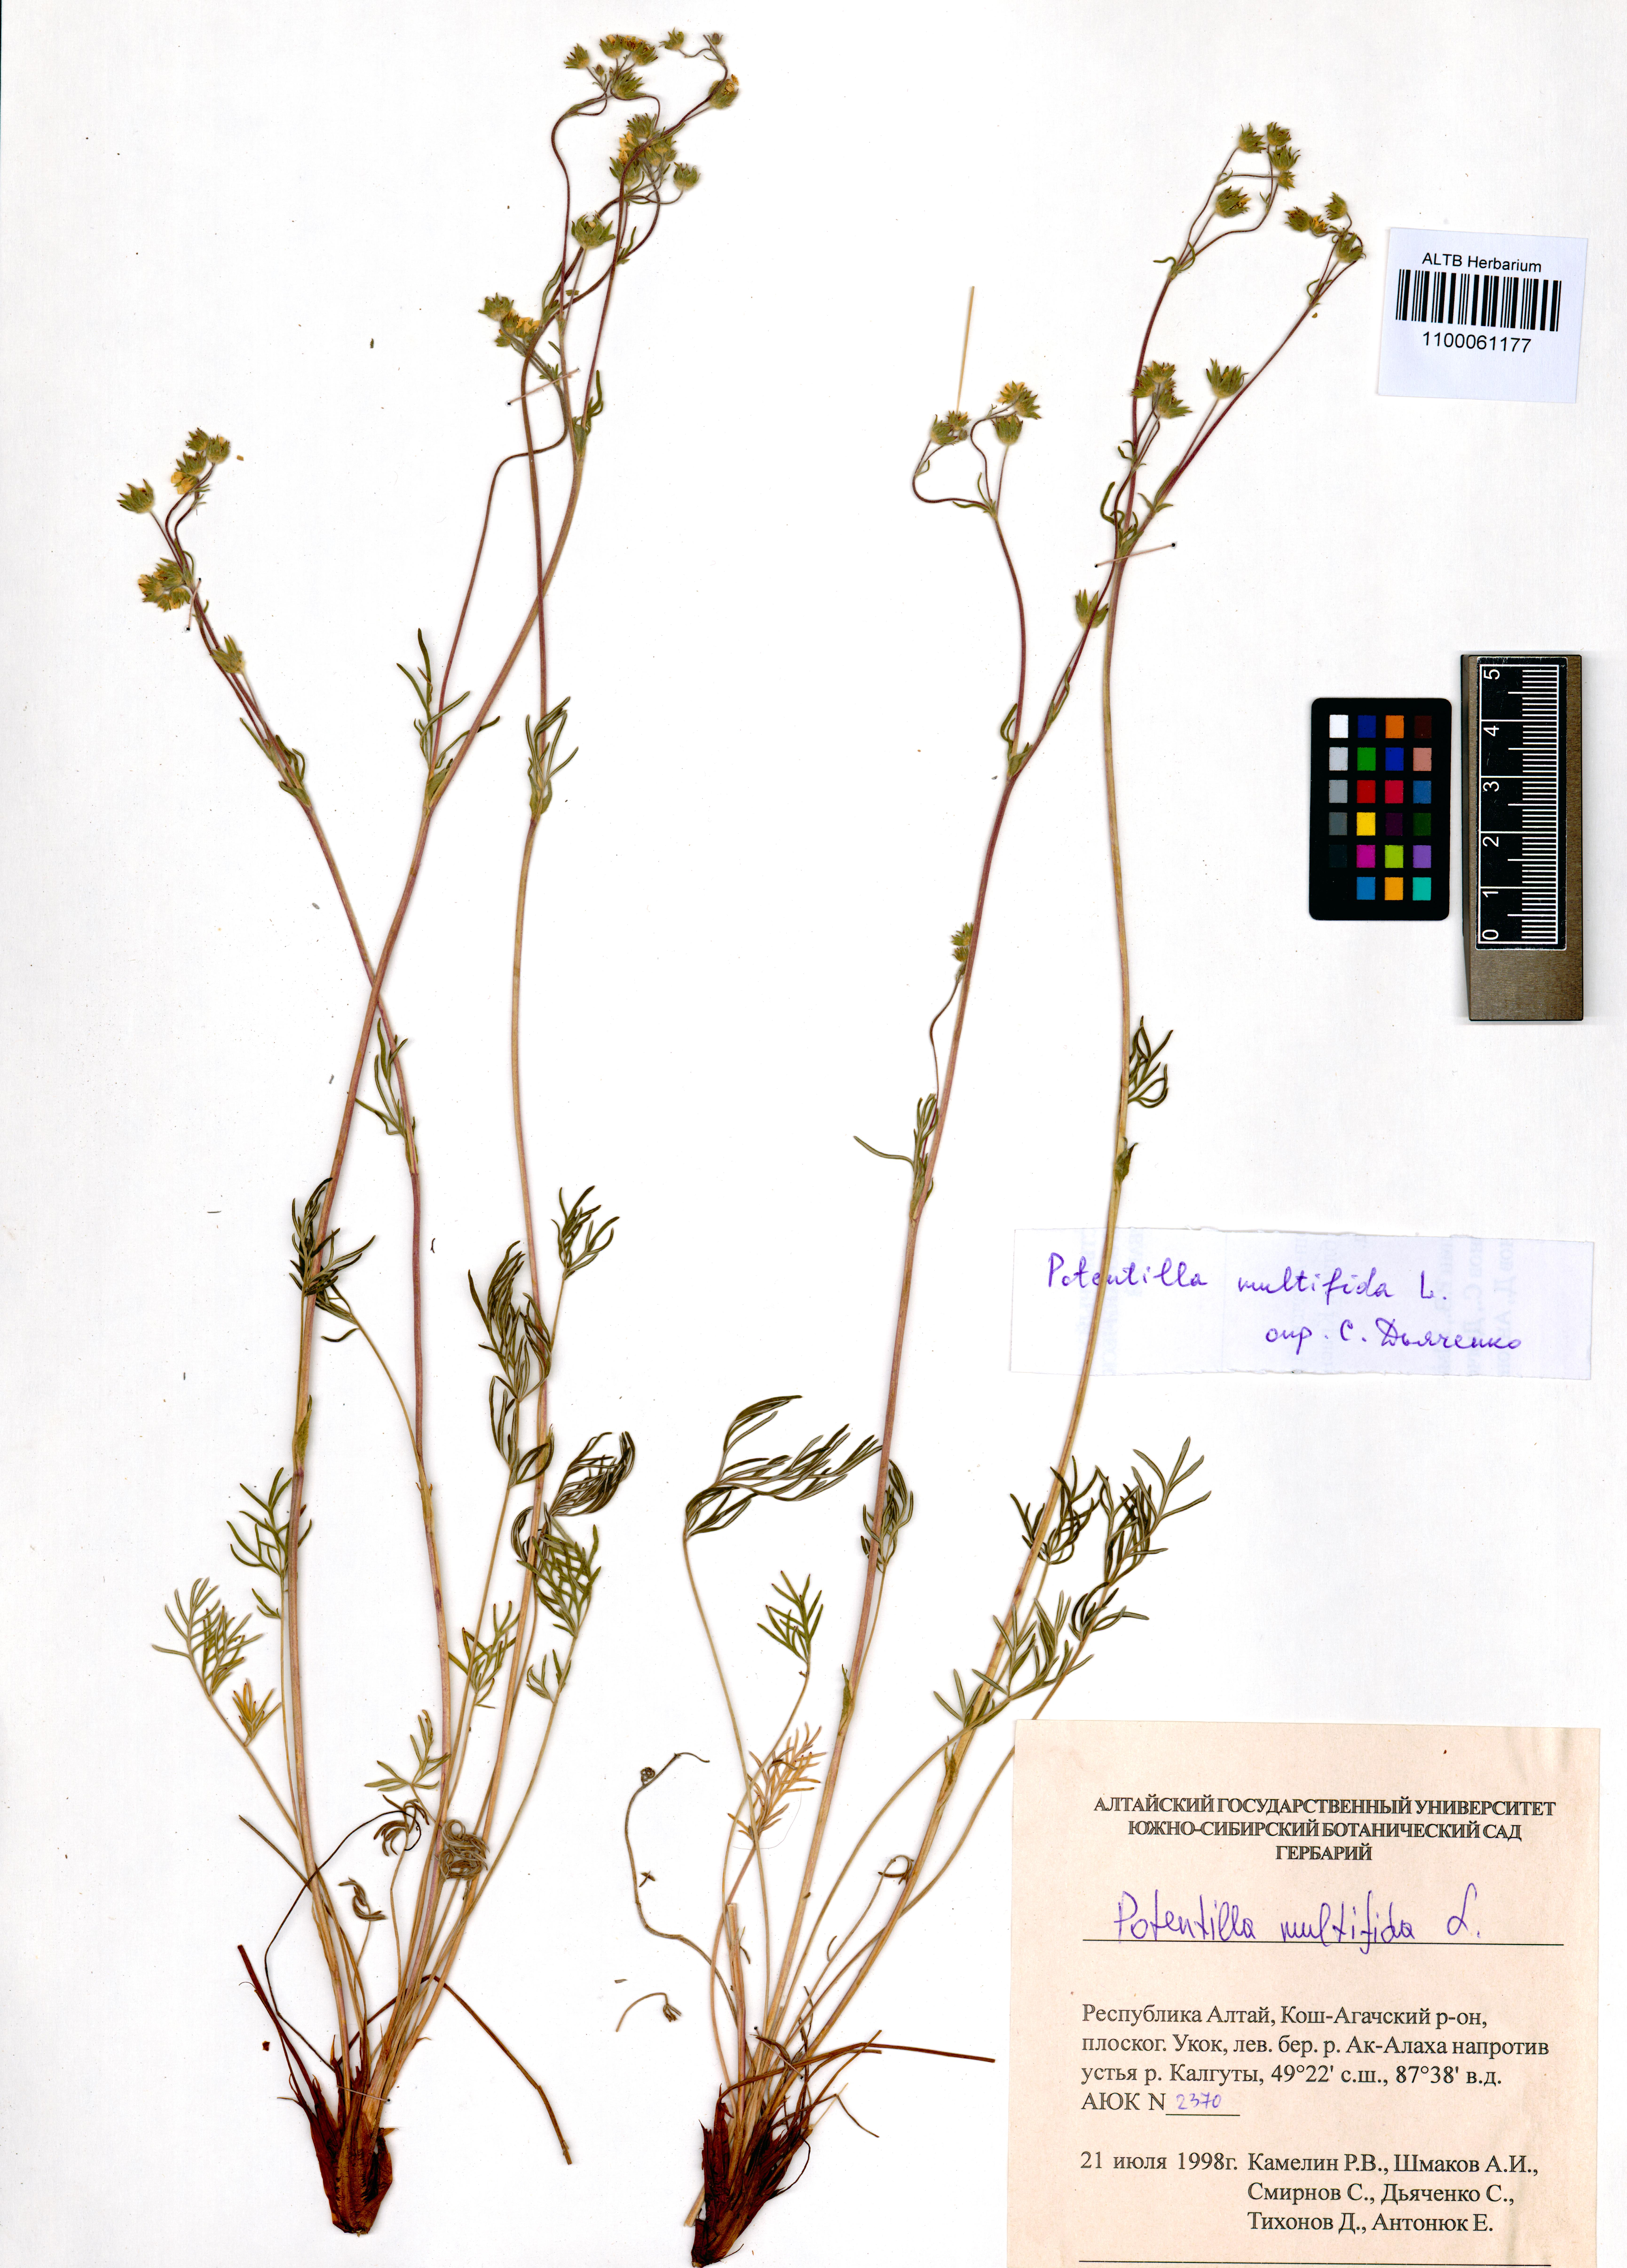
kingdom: Plantae
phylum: Tracheophyta
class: Magnoliopsida
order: Rosales
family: Rosaceae
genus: Potentilla
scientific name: Potentilla multifida
